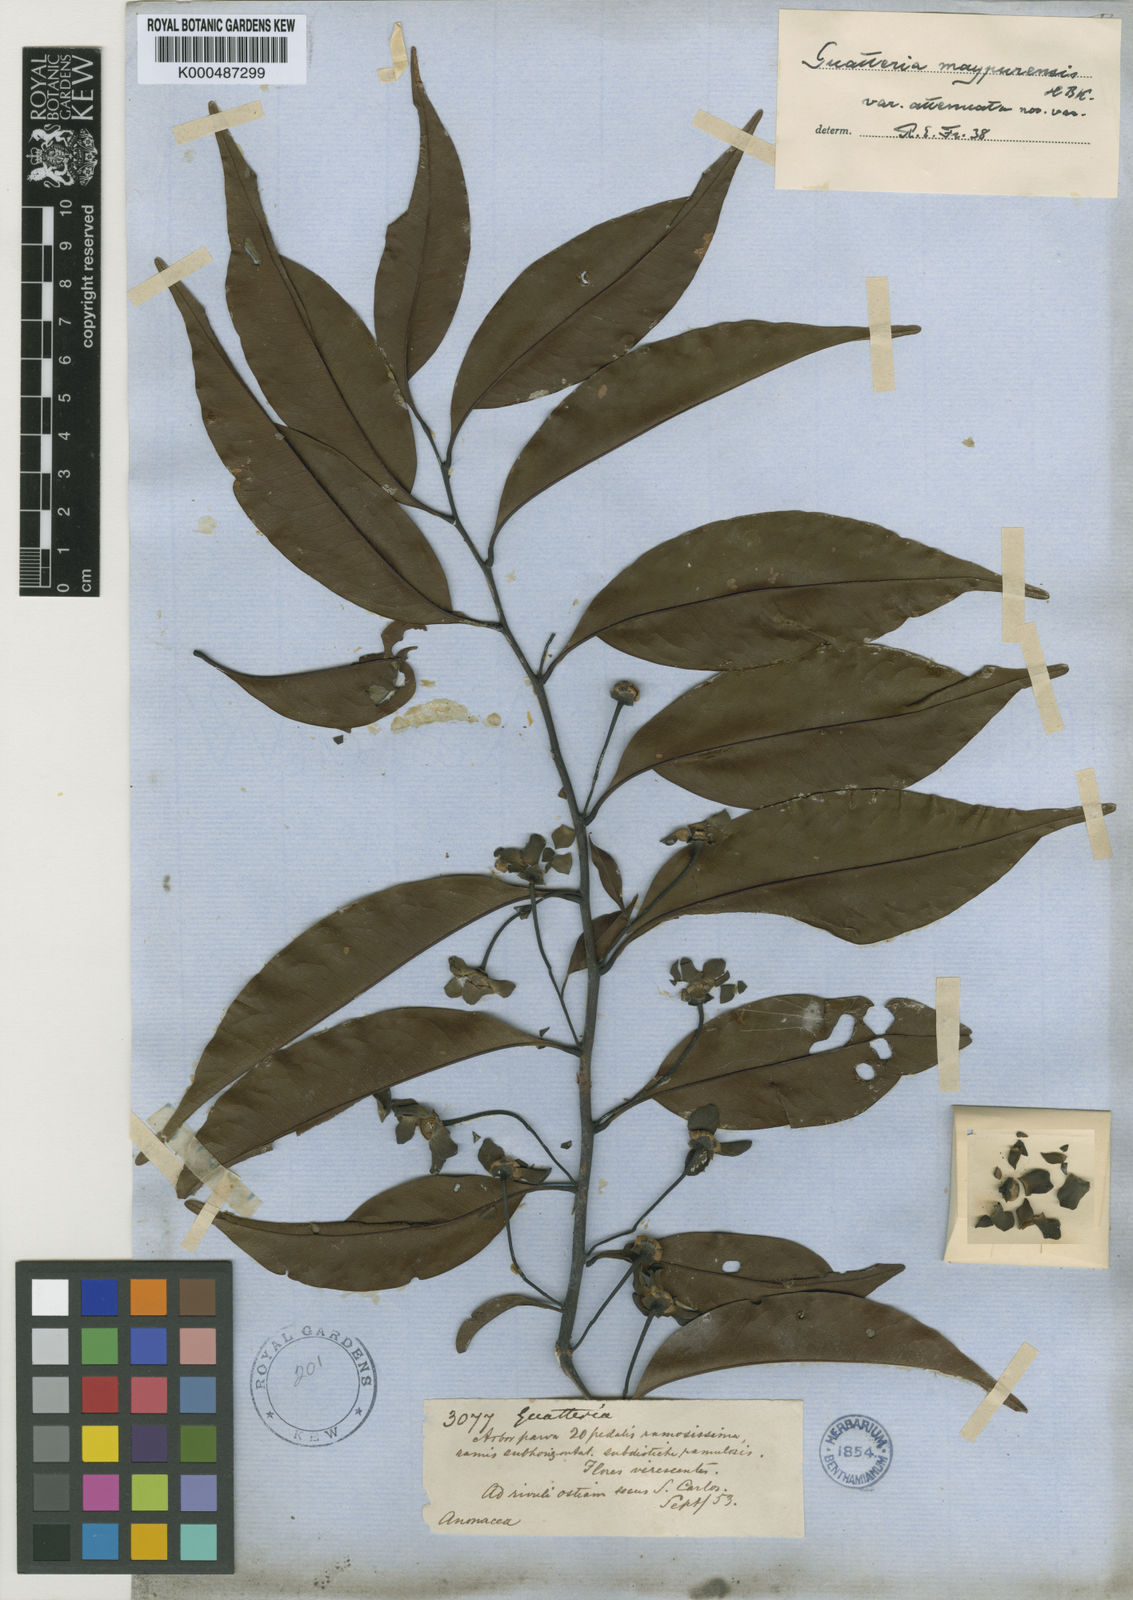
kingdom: Plantae
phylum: Tracheophyta
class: Magnoliopsida
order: Magnoliales
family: Annonaceae
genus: Guatteria
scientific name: Guatteria maypurensis
